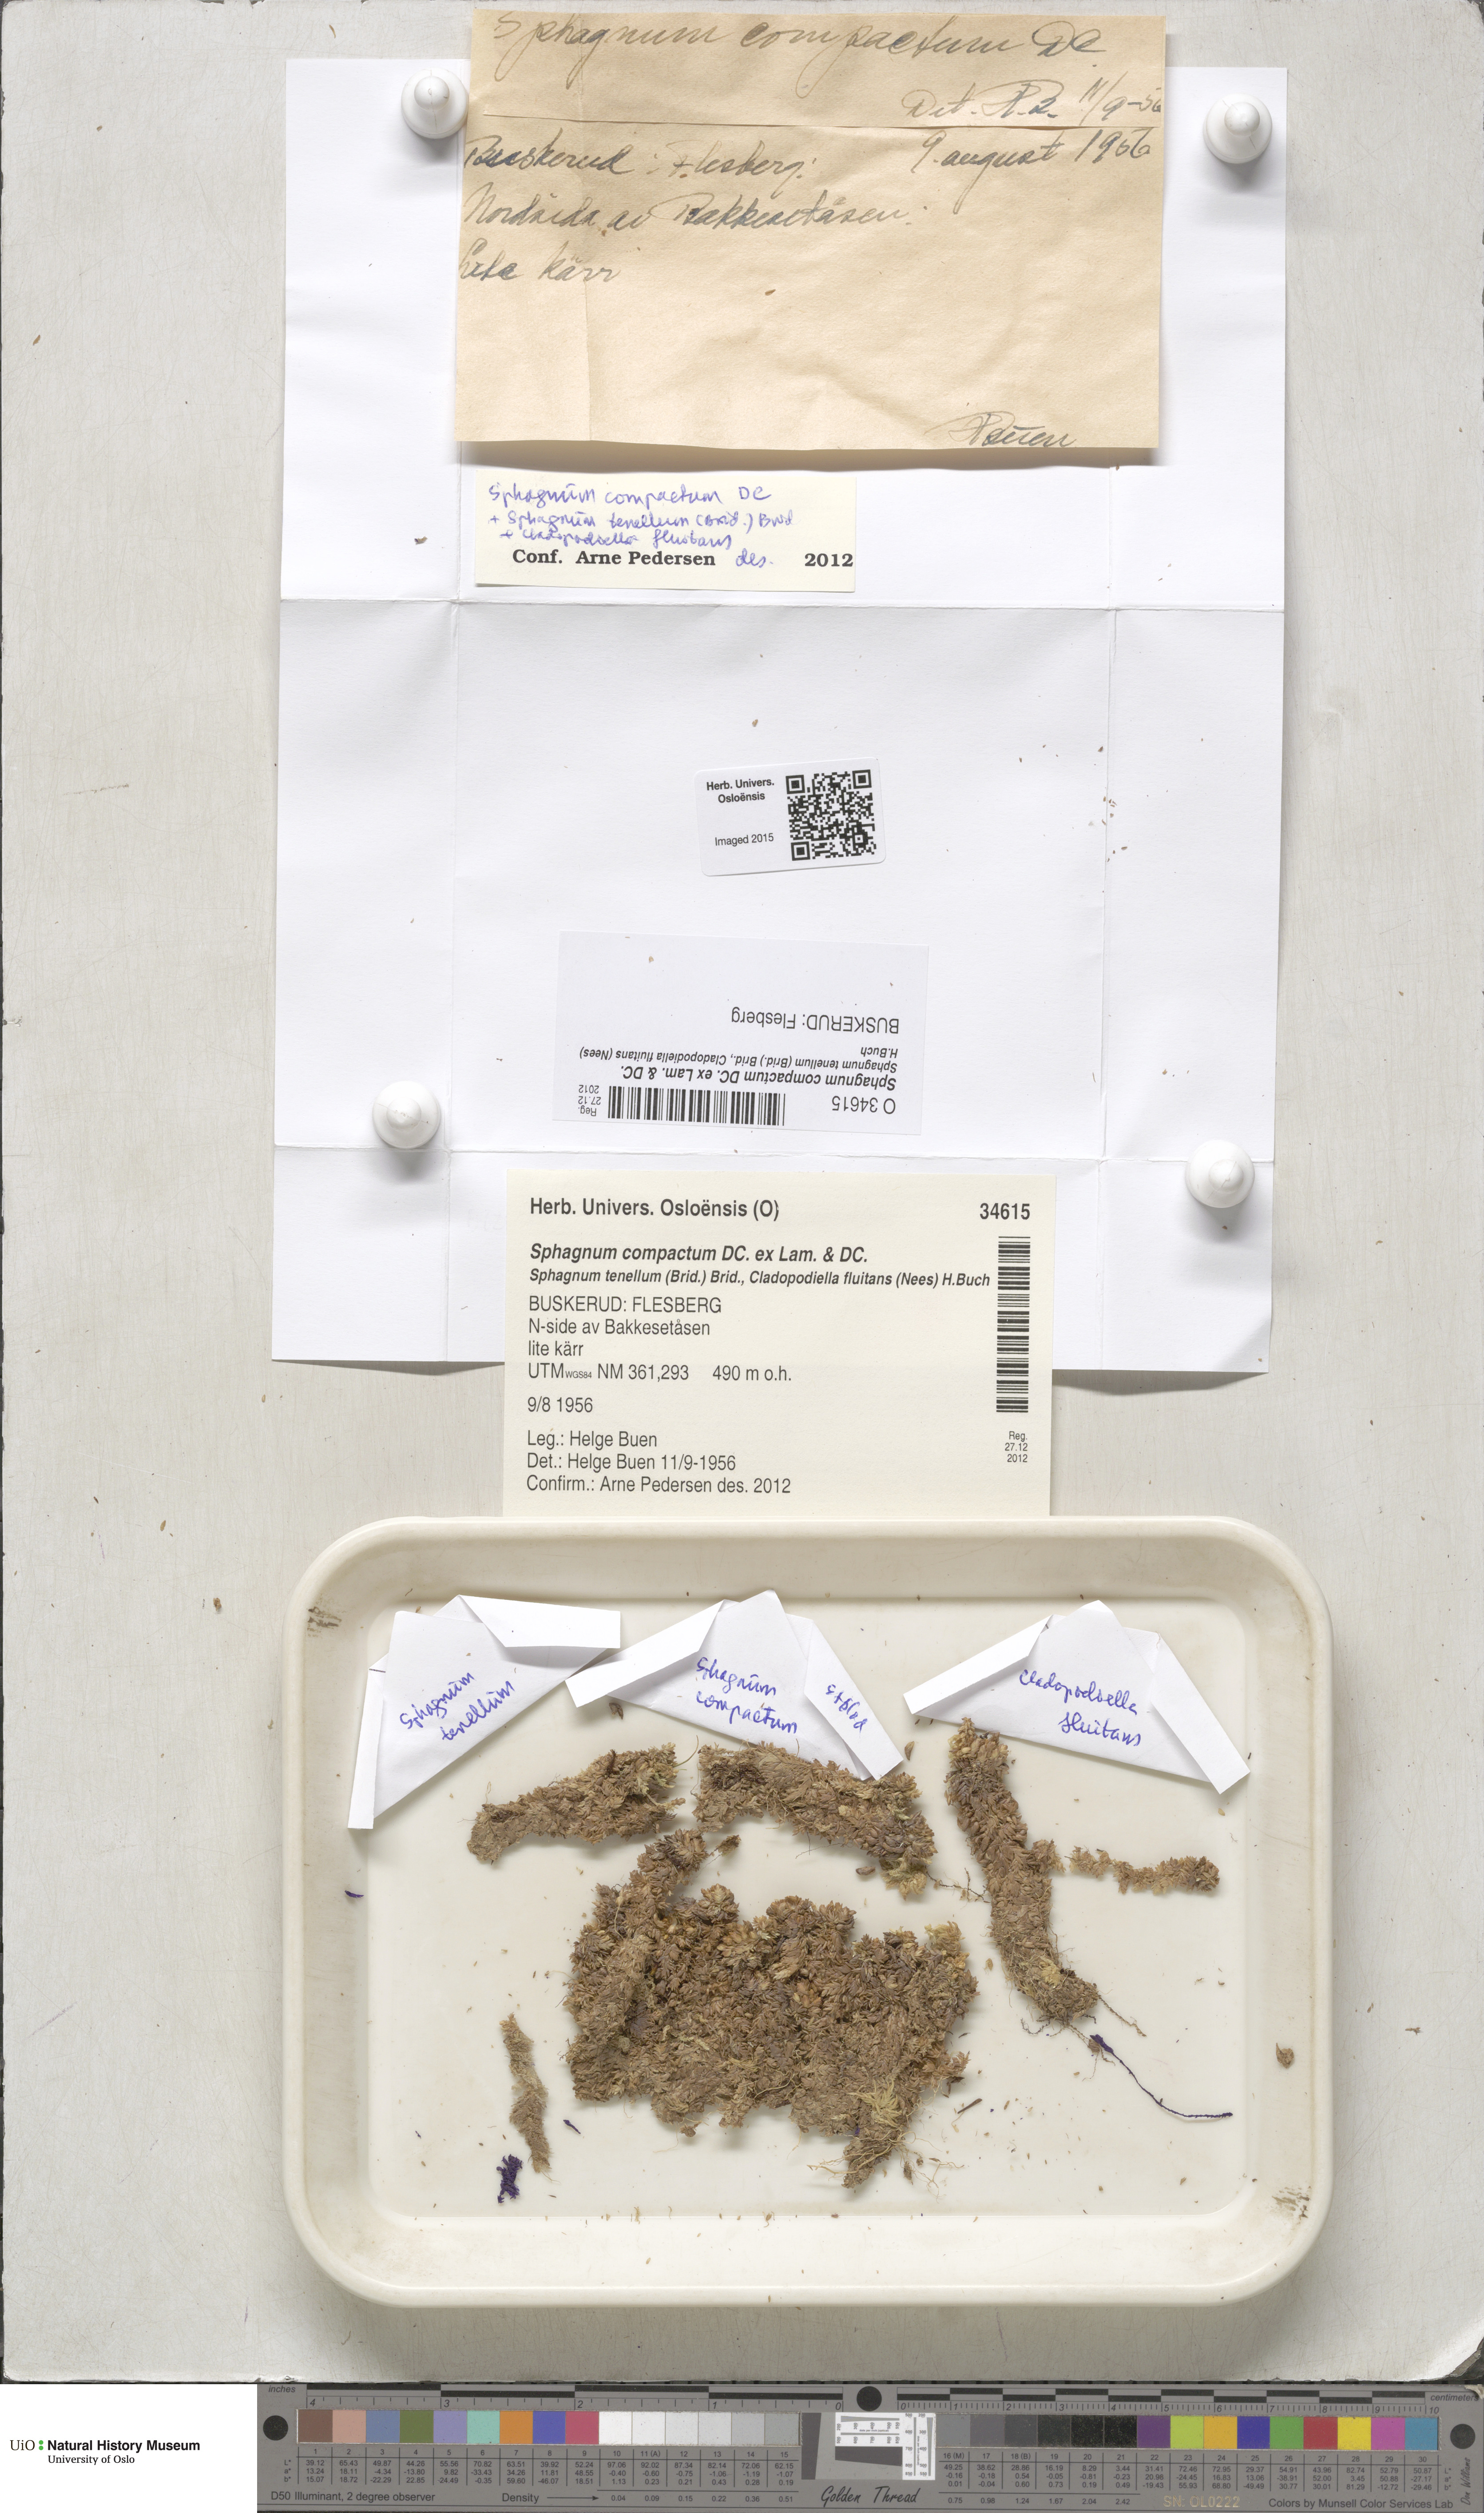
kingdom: Plantae
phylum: Bryophyta
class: Sphagnopsida
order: Sphagnales
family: Sphagnaceae
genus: Sphagnum
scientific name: Sphagnum compactum
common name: Compact peat moss
